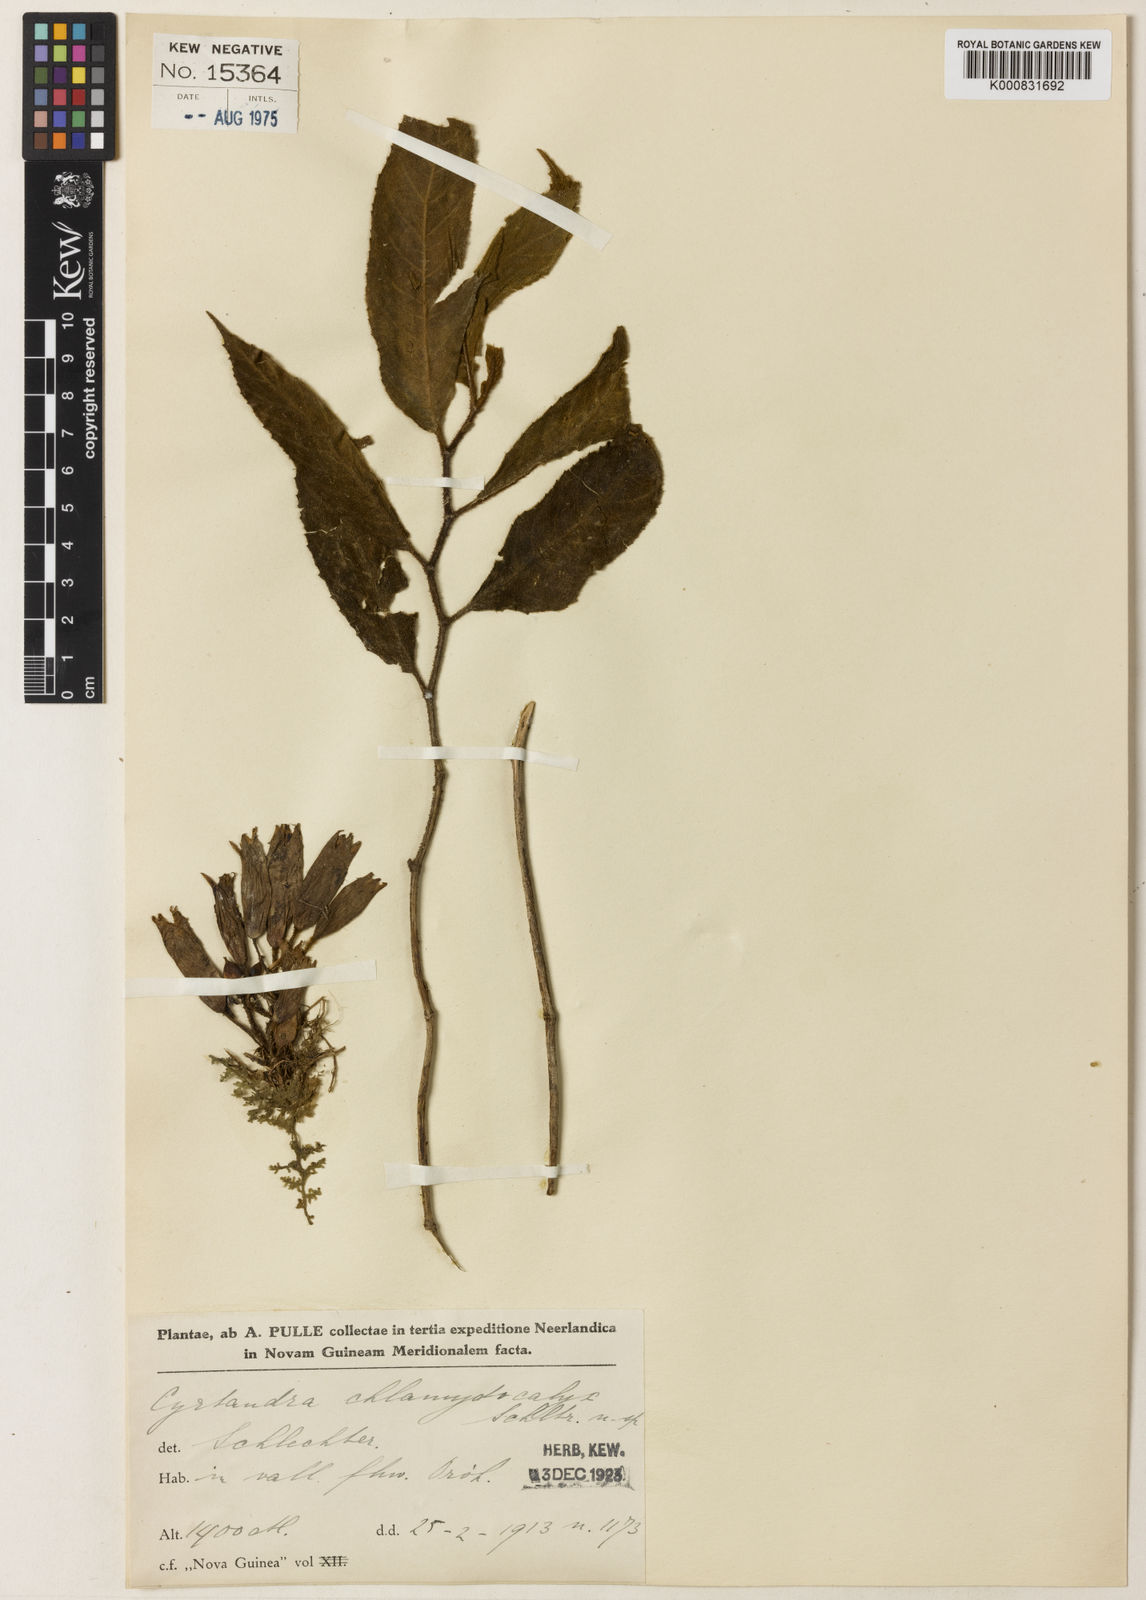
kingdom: Plantae
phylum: Tracheophyta
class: Magnoliopsida
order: Lamiales
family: Gesneriaceae
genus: Cyrtandra
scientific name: Cyrtandra chlamydocalyx
